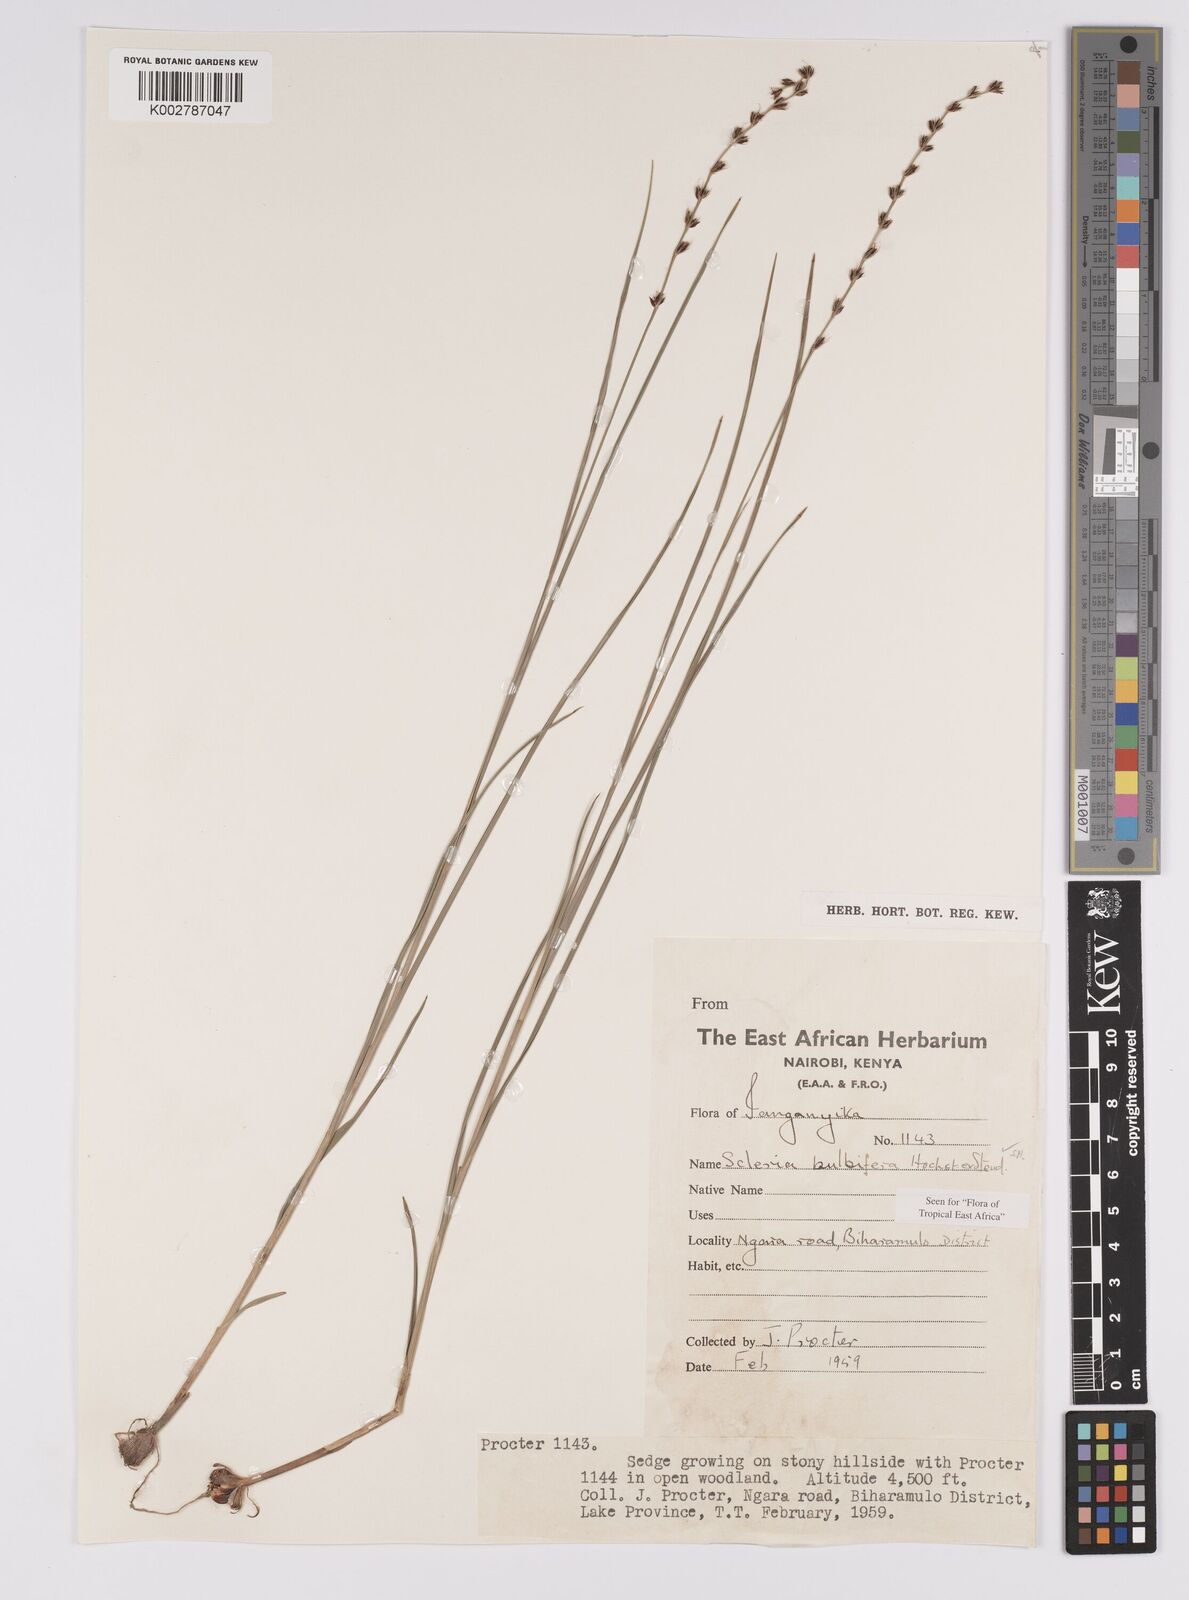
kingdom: Plantae
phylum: Tracheophyta
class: Liliopsida
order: Poales
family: Cyperaceae
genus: Scleria
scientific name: Scleria bulbifera
